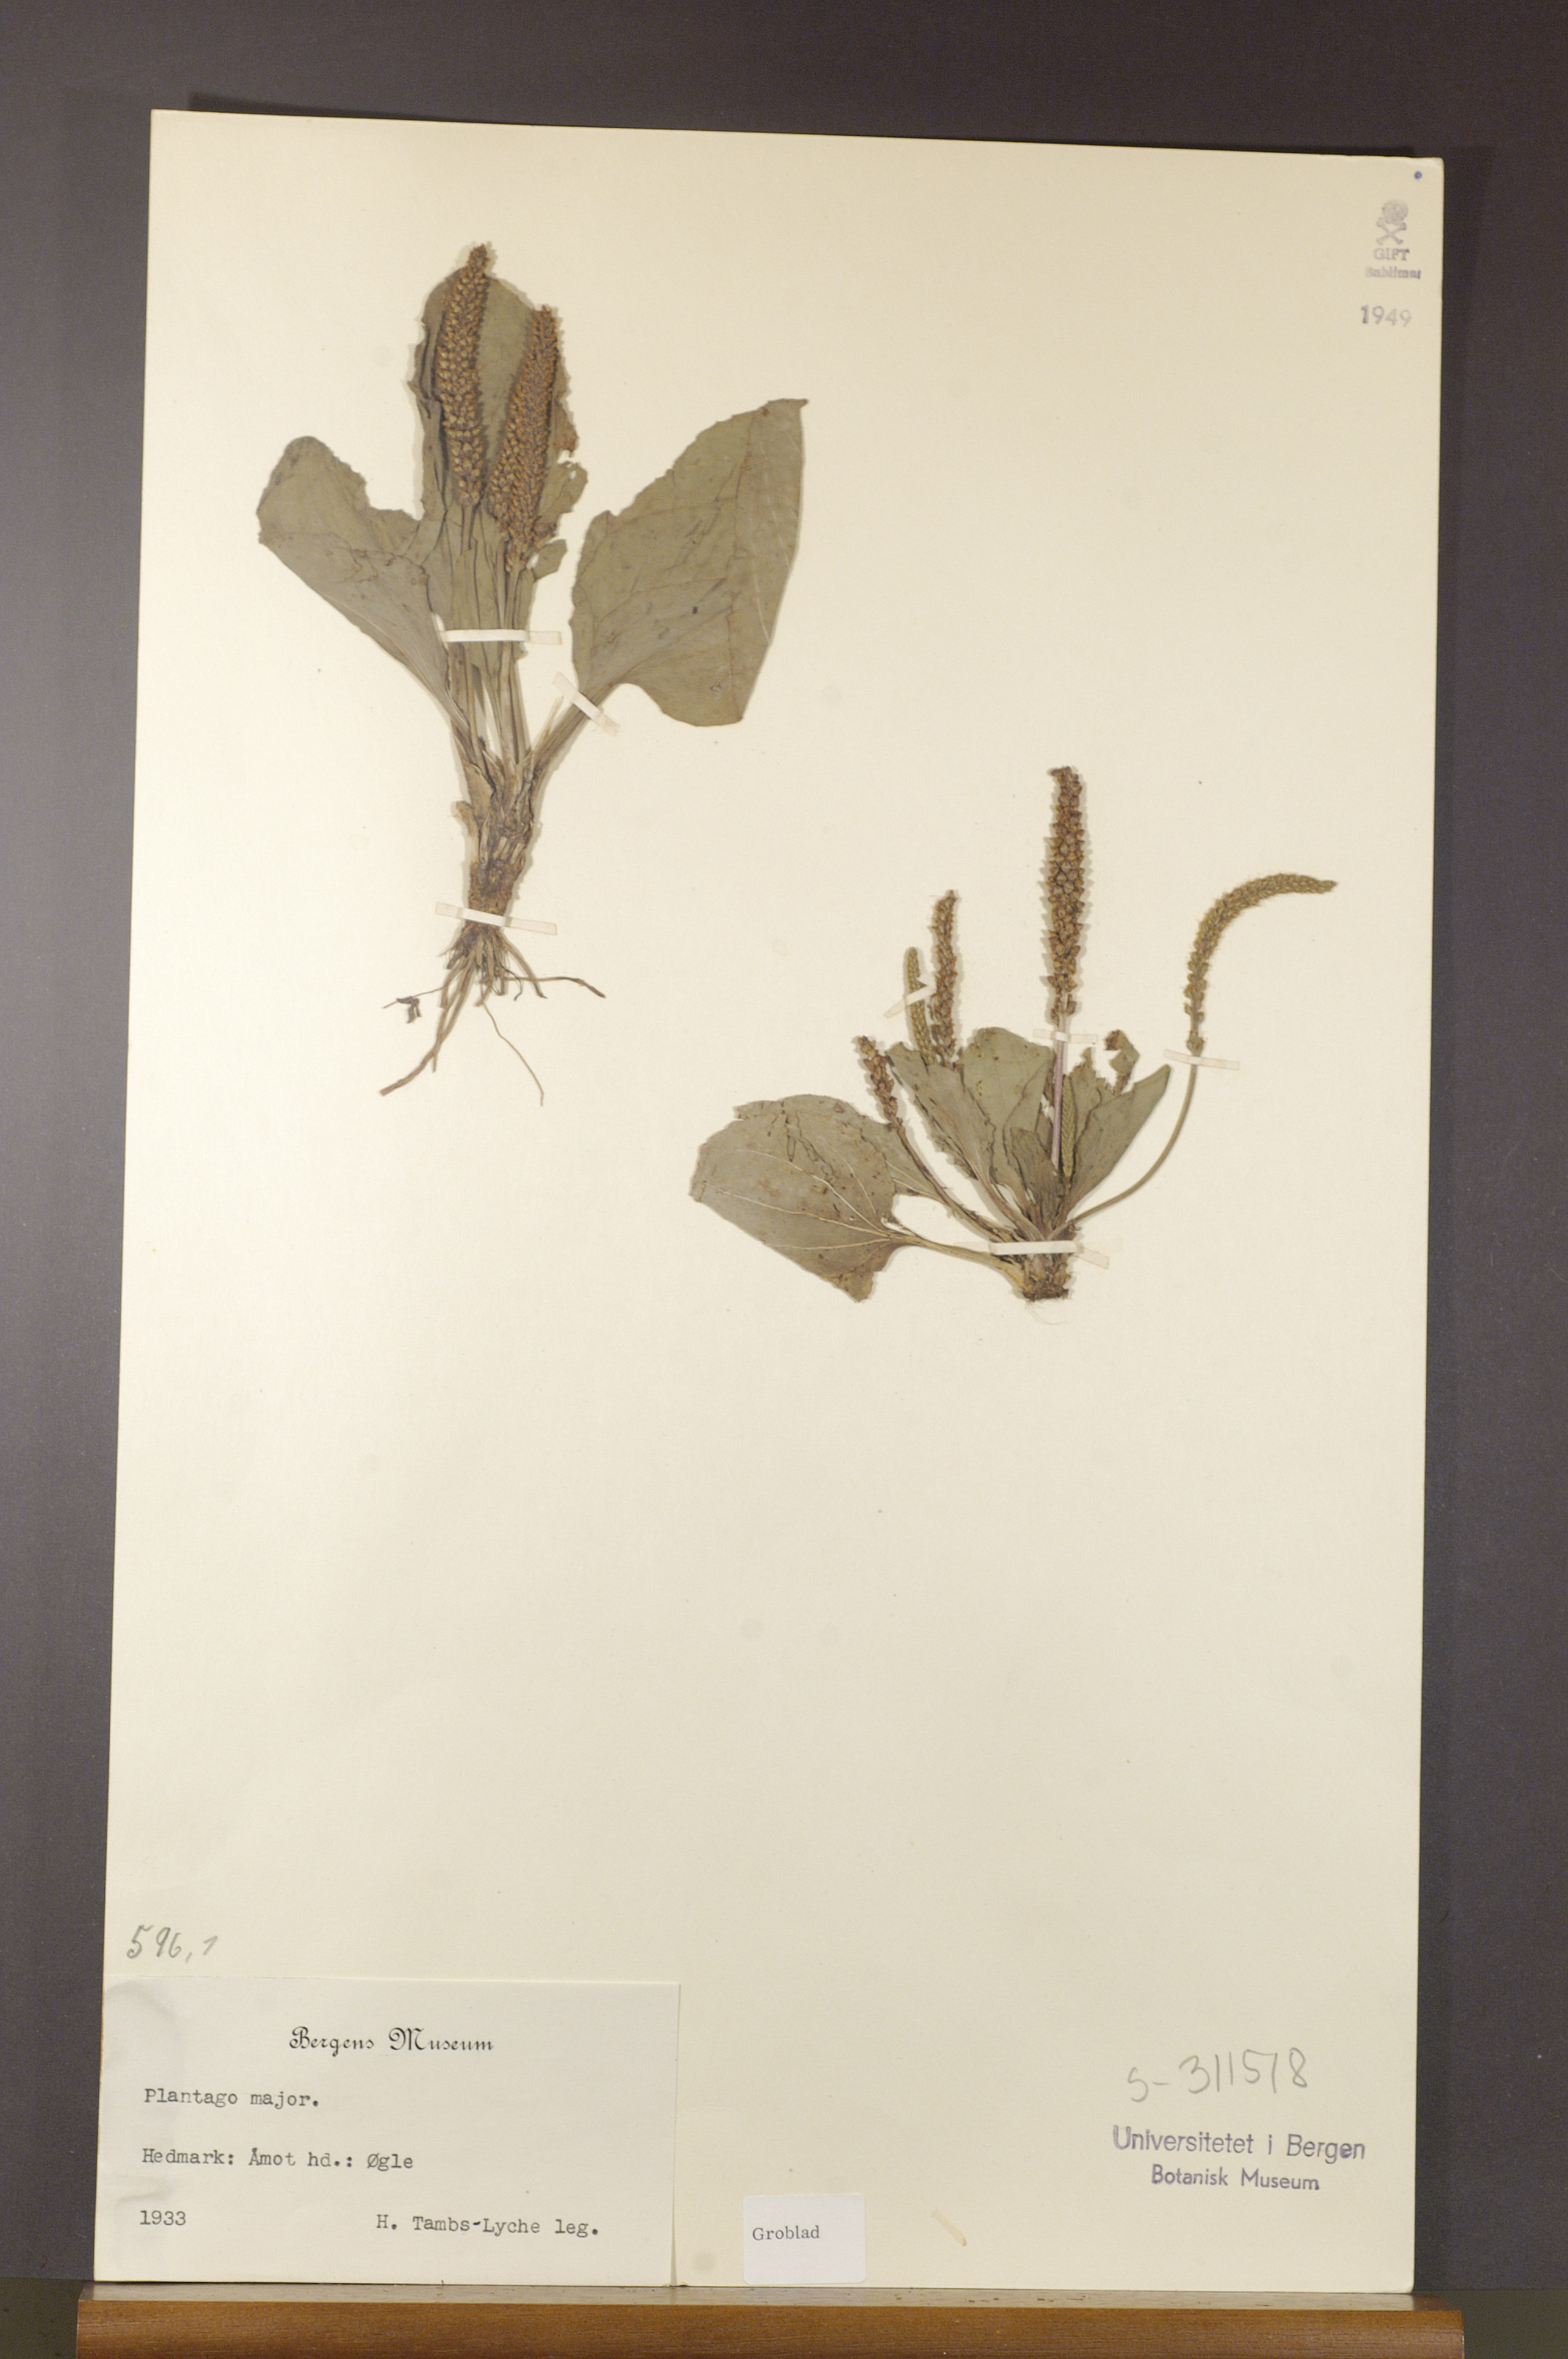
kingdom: Plantae
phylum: Tracheophyta
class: Magnoliopsida
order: Lamiales
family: Plantaginaceae
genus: Plantago
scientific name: Plantago major
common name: Common plantain
